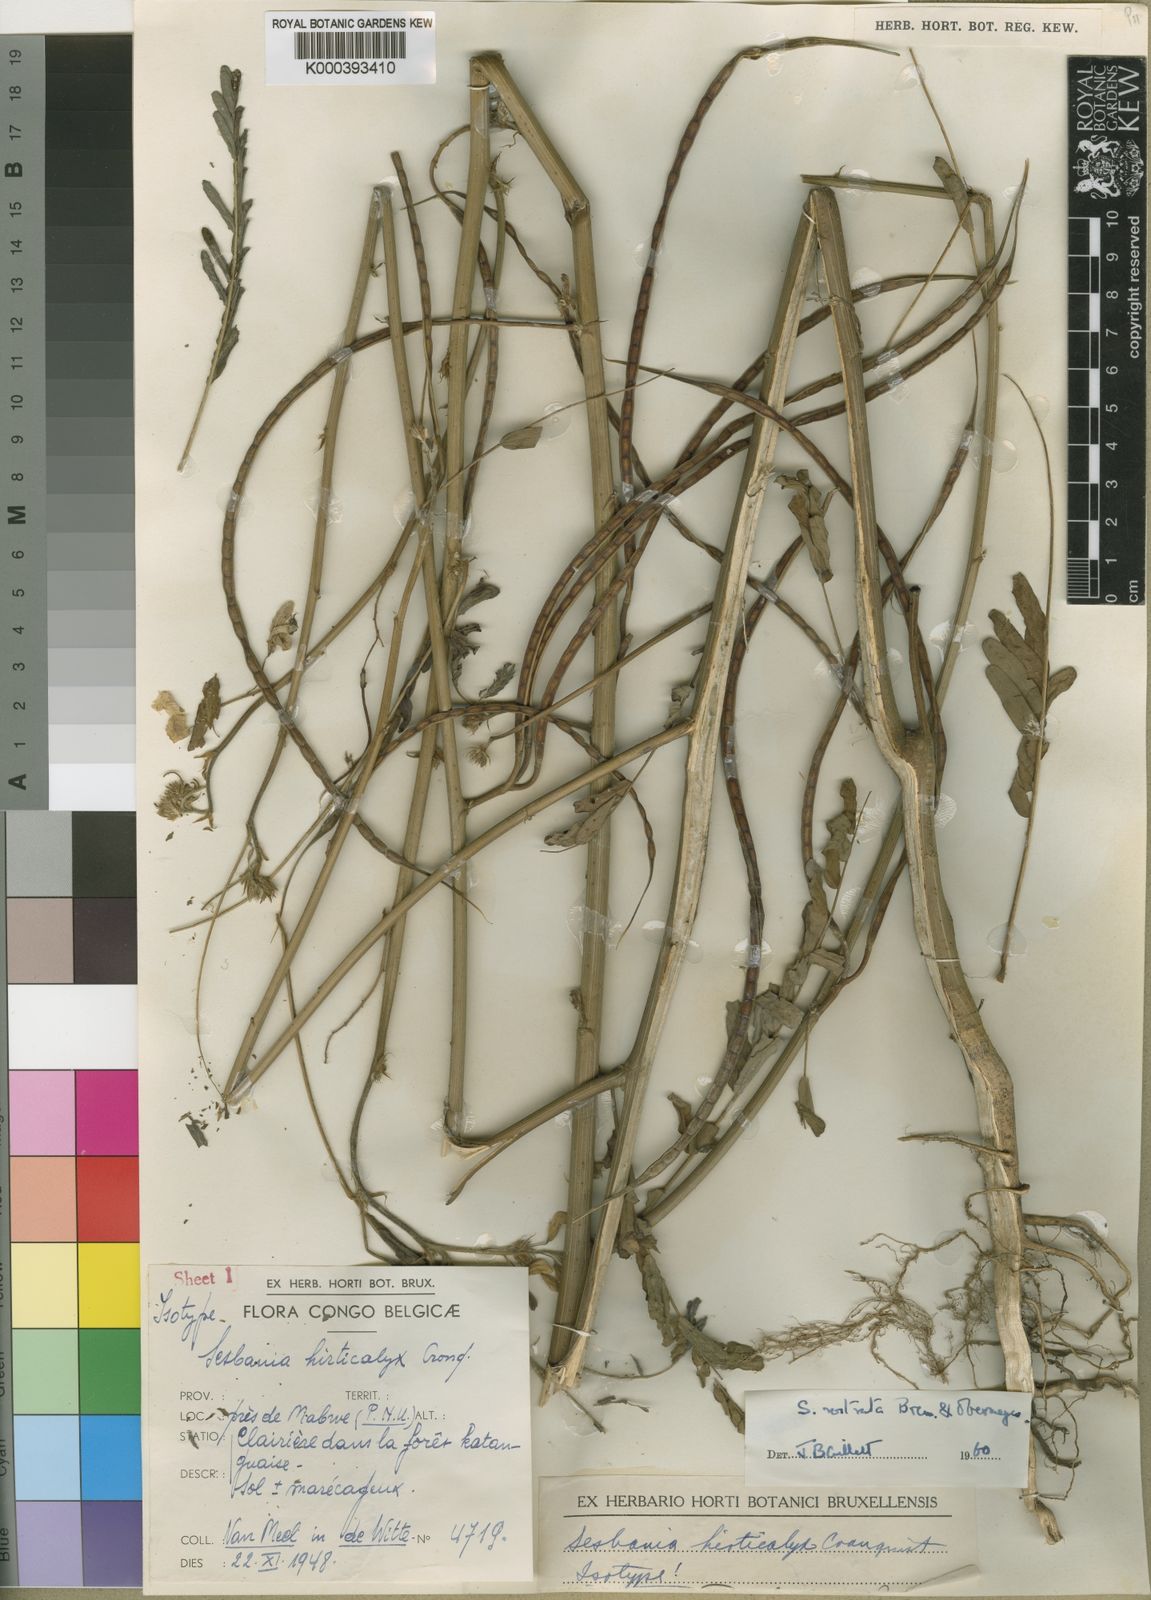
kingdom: Plantae
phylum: Tracheophyta
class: Magnoliopsida
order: Fabales
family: Fabaceae
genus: Sesbania
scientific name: Sesbania rostrata
